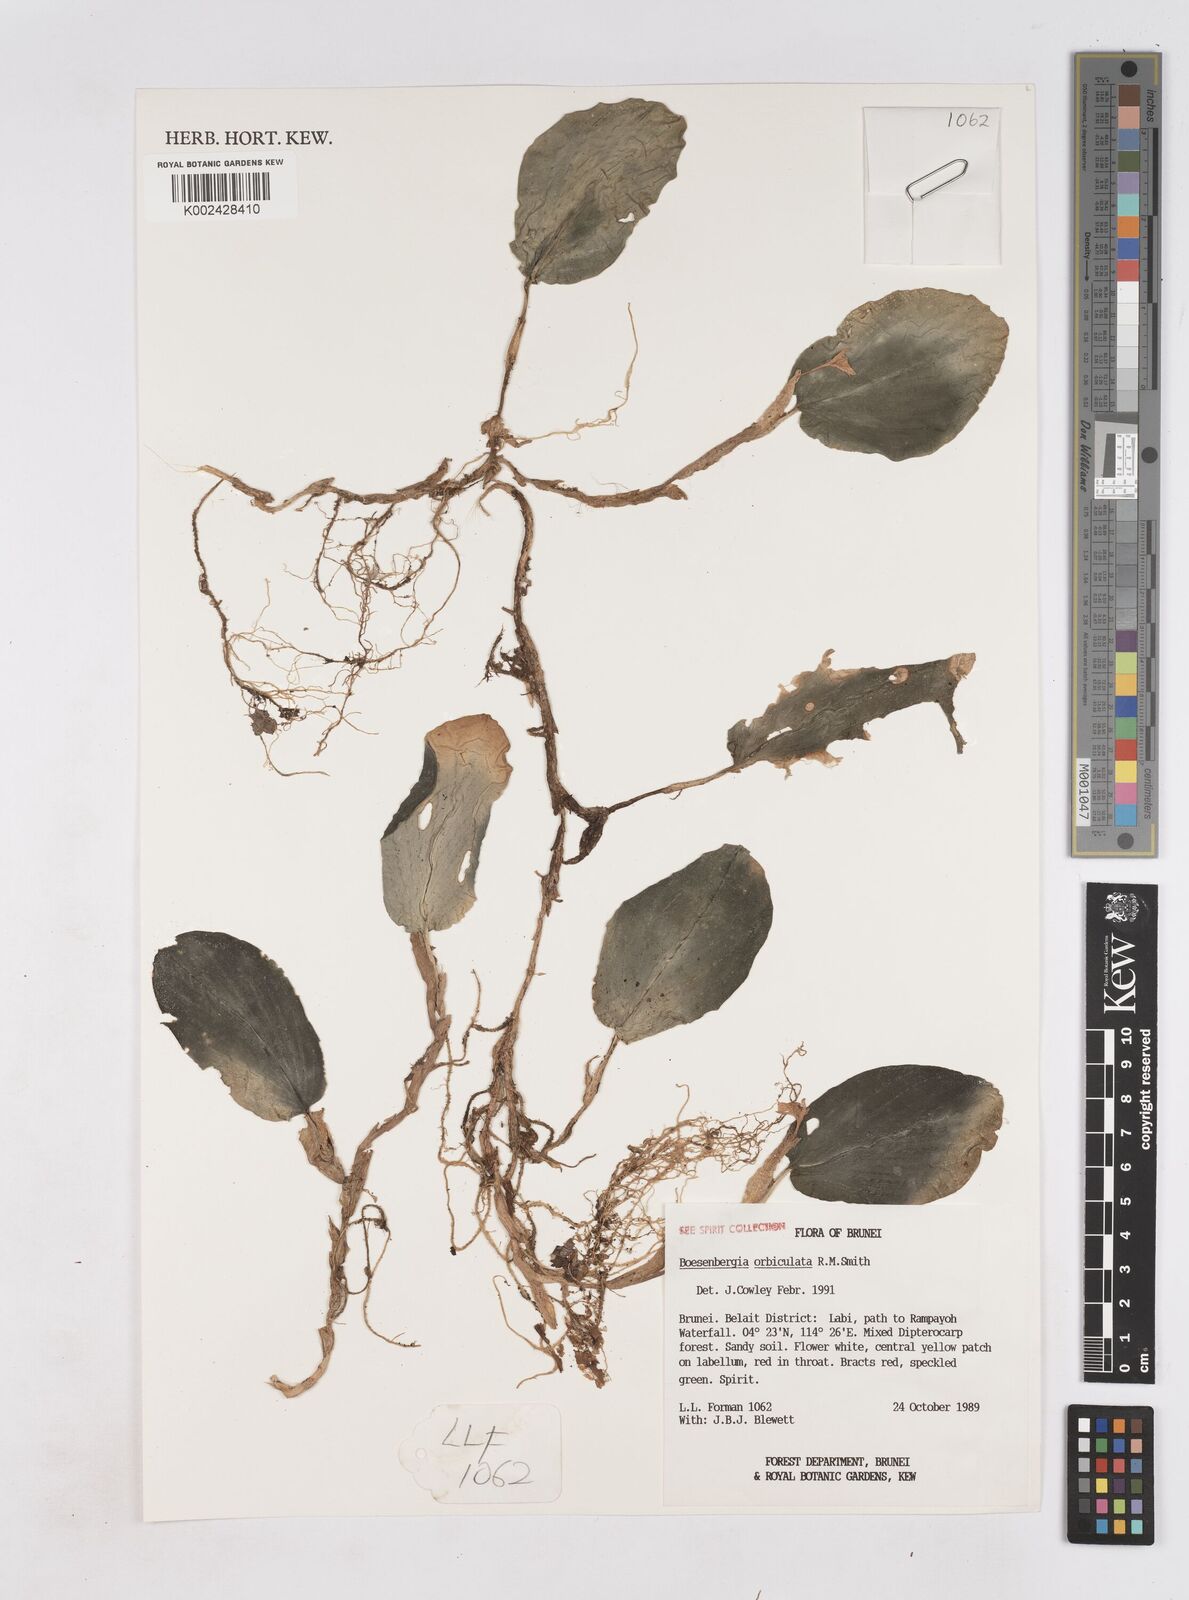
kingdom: Plantae
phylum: Tracheophyta
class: Liliopsida
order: Zingiberales
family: Zingiberaceae
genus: Boesenbergia
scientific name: Boesenbergia orbiculata
